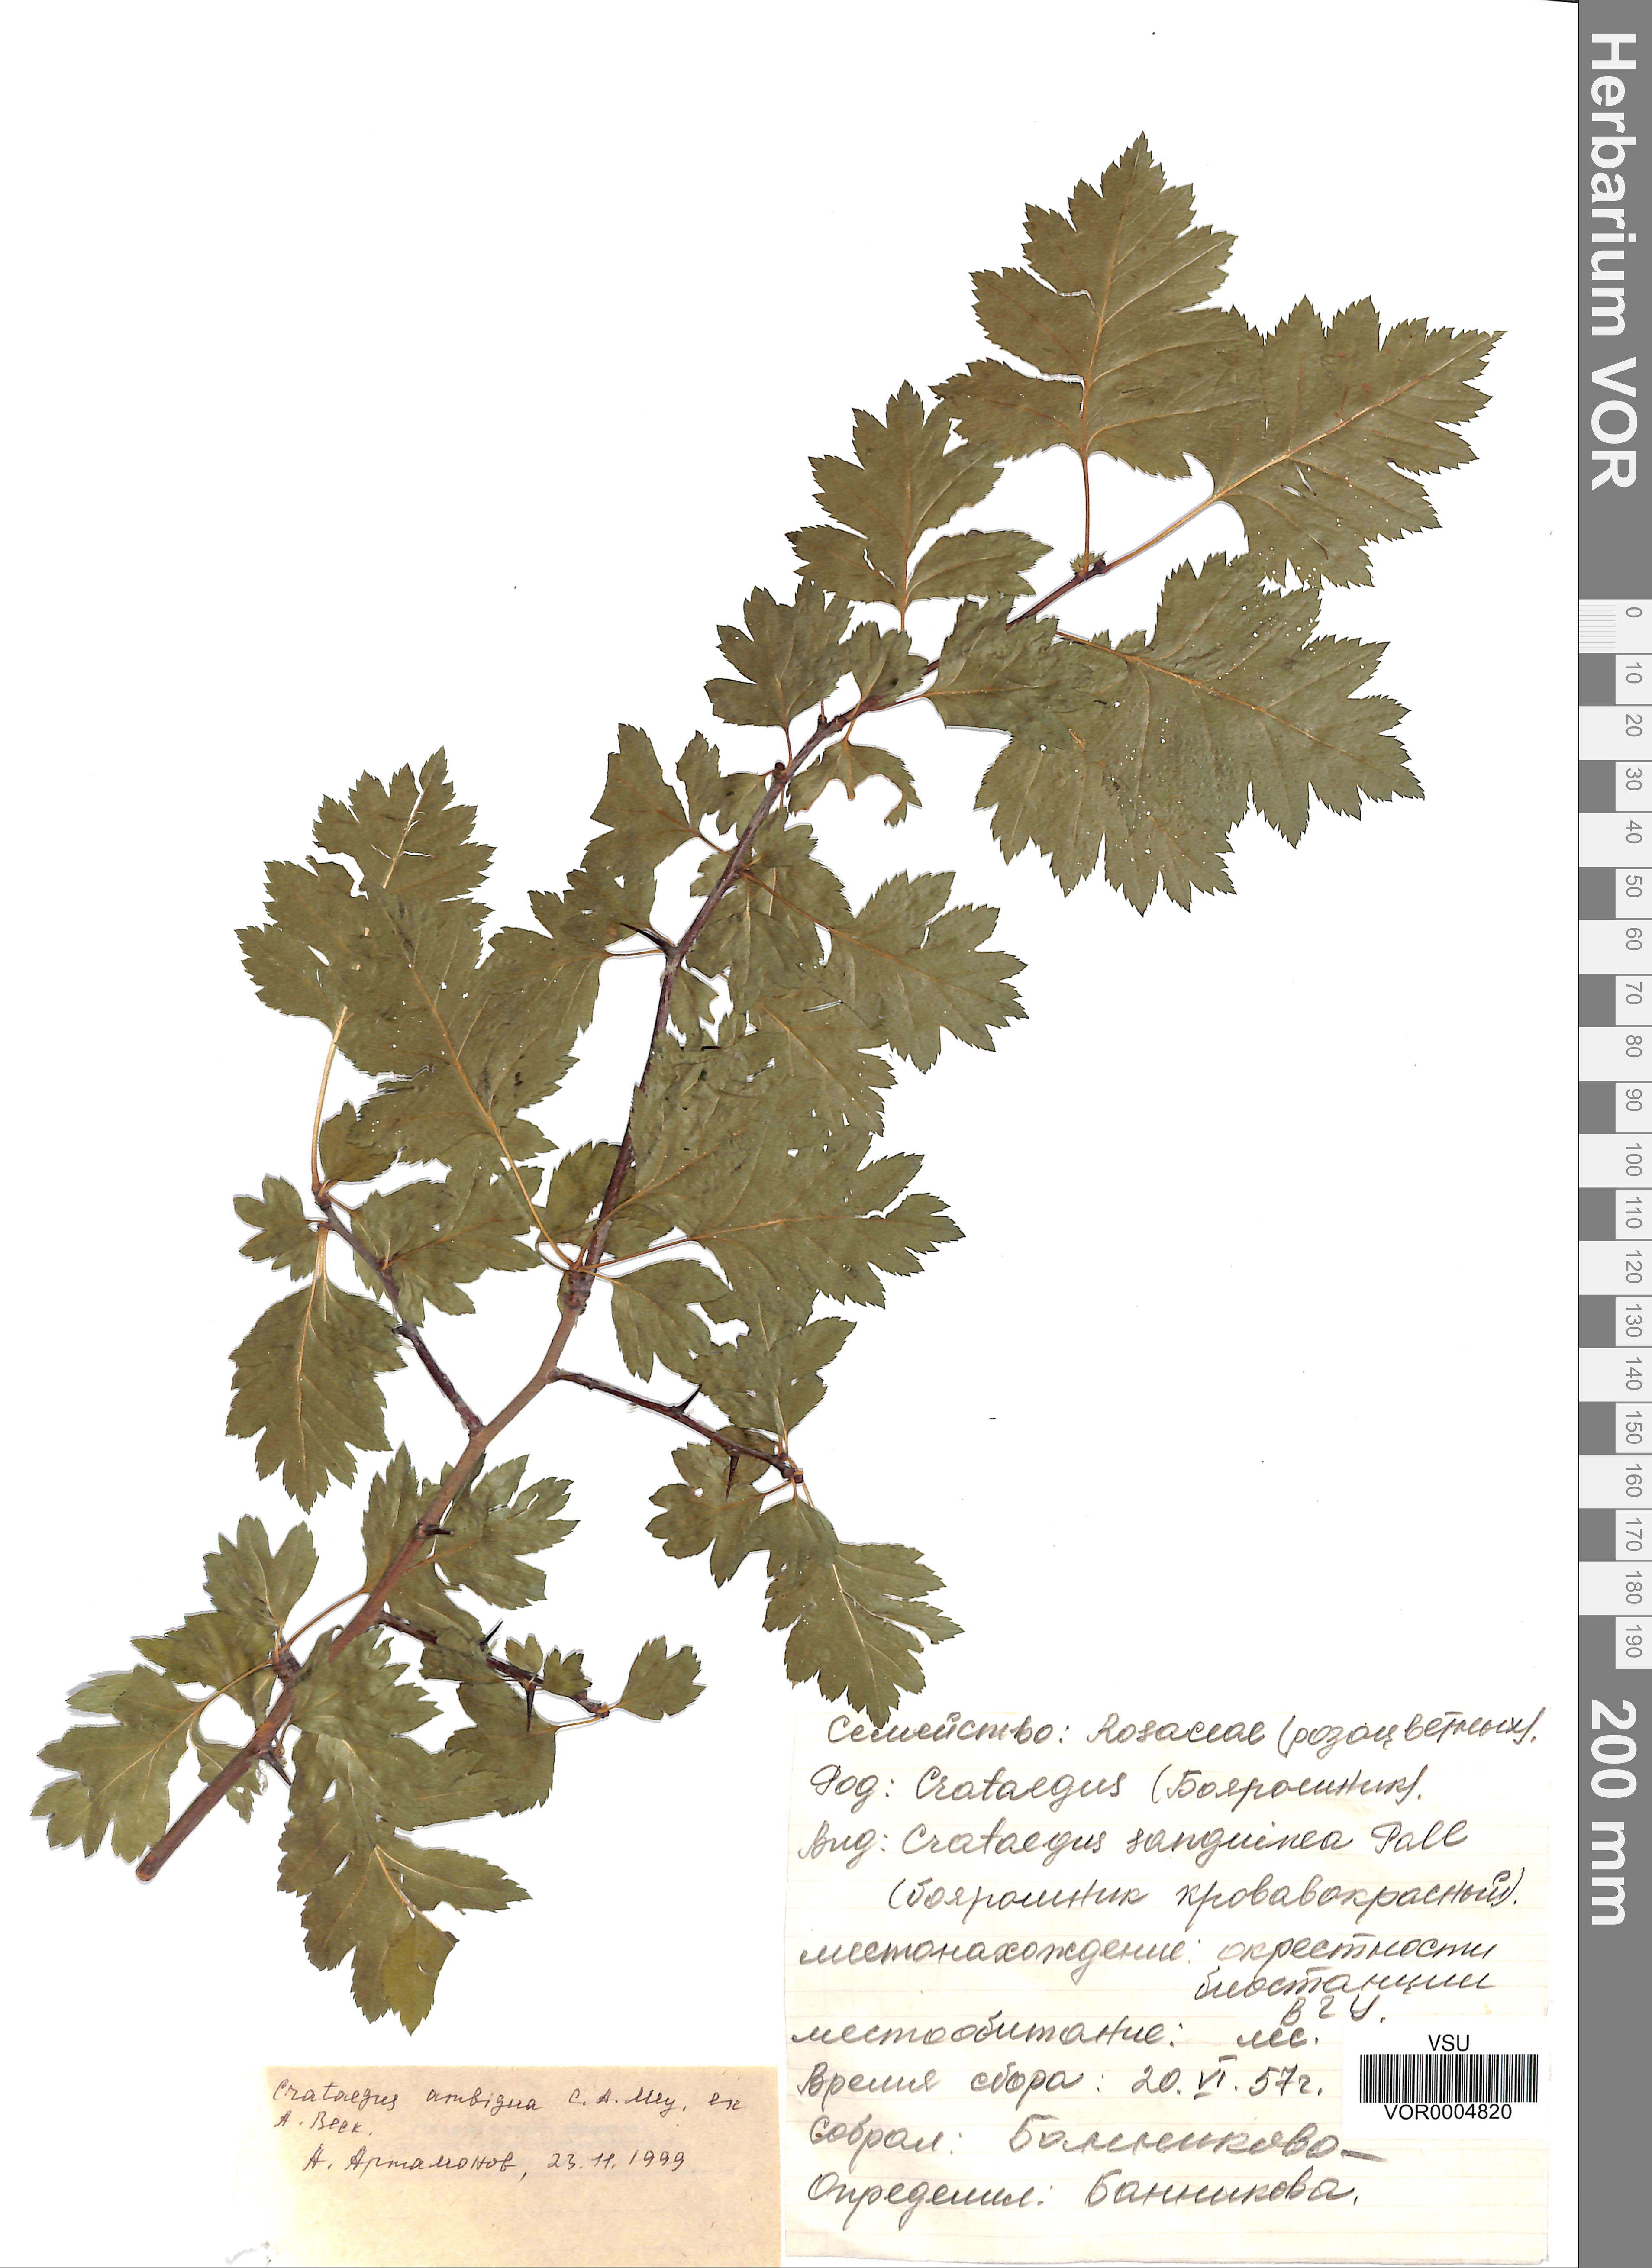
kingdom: Plantae
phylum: Tracheophyta
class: Magnoliopsida
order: Rosales
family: Rosaceae
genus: Crataegus
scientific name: Crataegus ambigua
